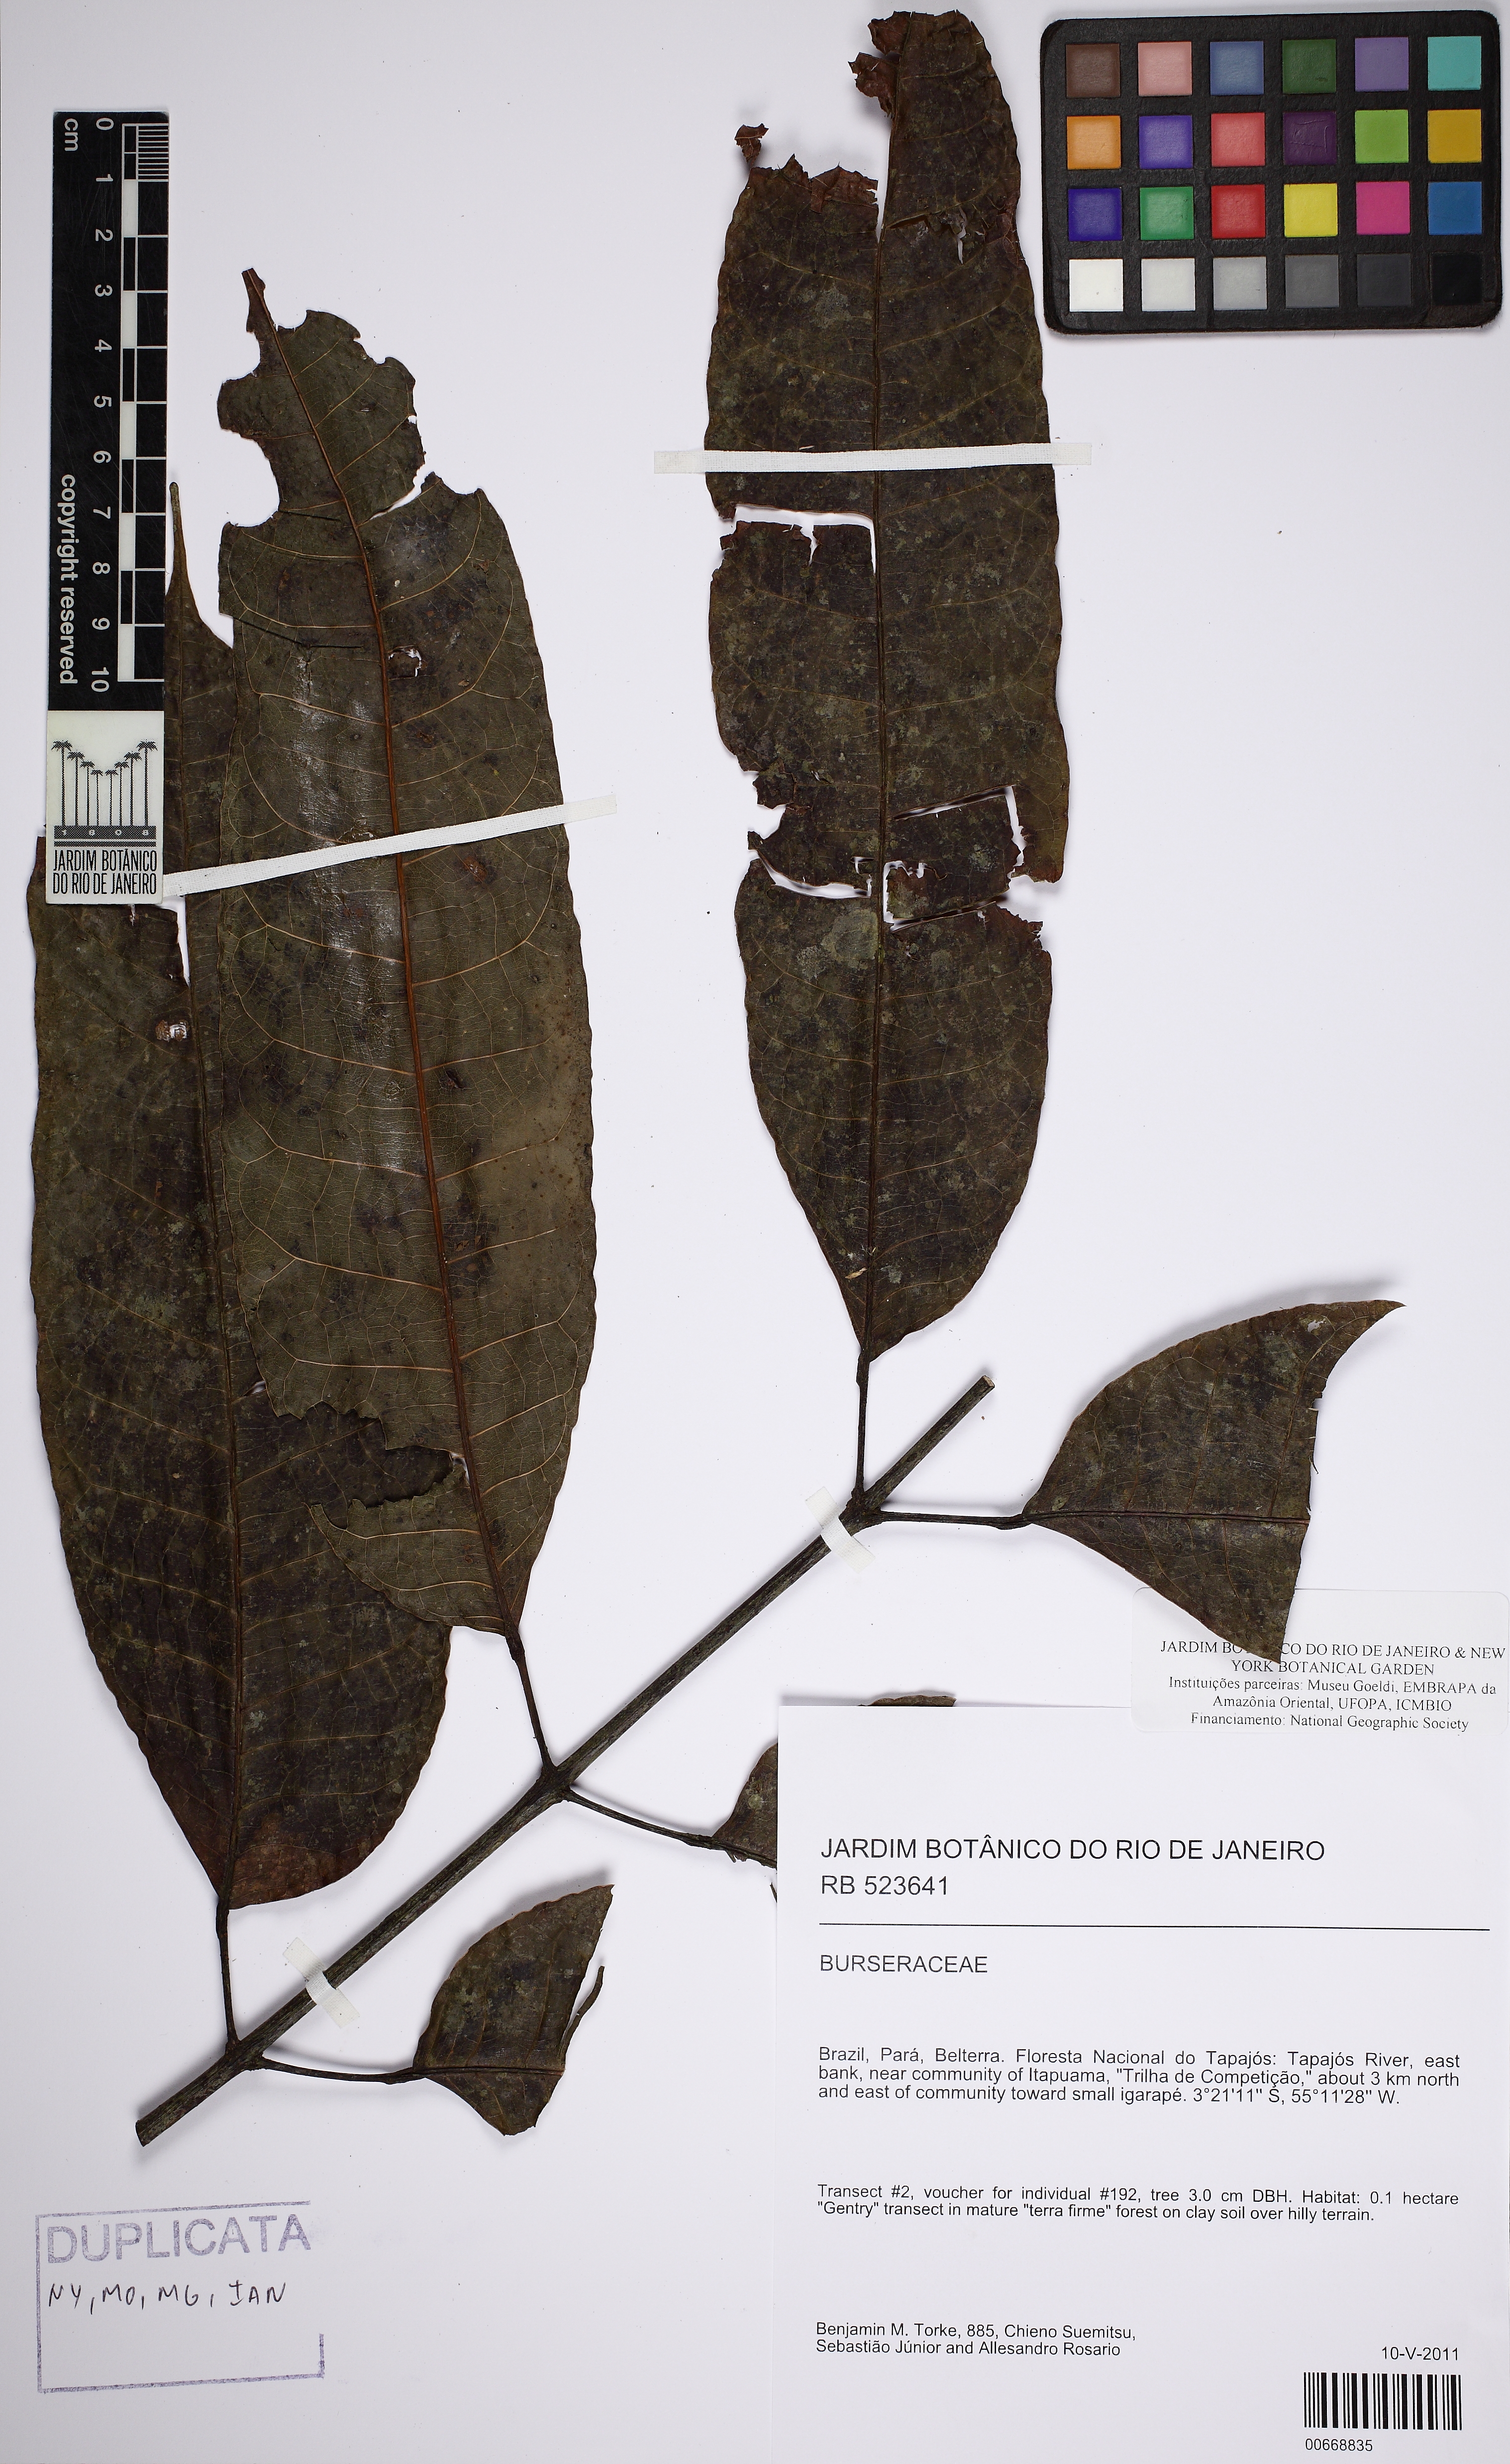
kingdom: Plantae
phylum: Tracheophyta
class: Magnoliopsida
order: Sapindales
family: Burseraceae
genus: Protium
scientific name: Protium warmingianum
